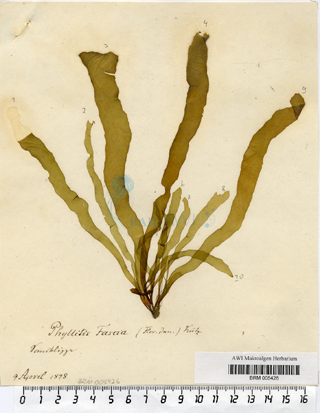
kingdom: Chromista
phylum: Ochrophyta
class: Phaeophyceae
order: Scytosiphonales
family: Scytosiphonaceae
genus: Petalonia
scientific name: Petalonia fascia
